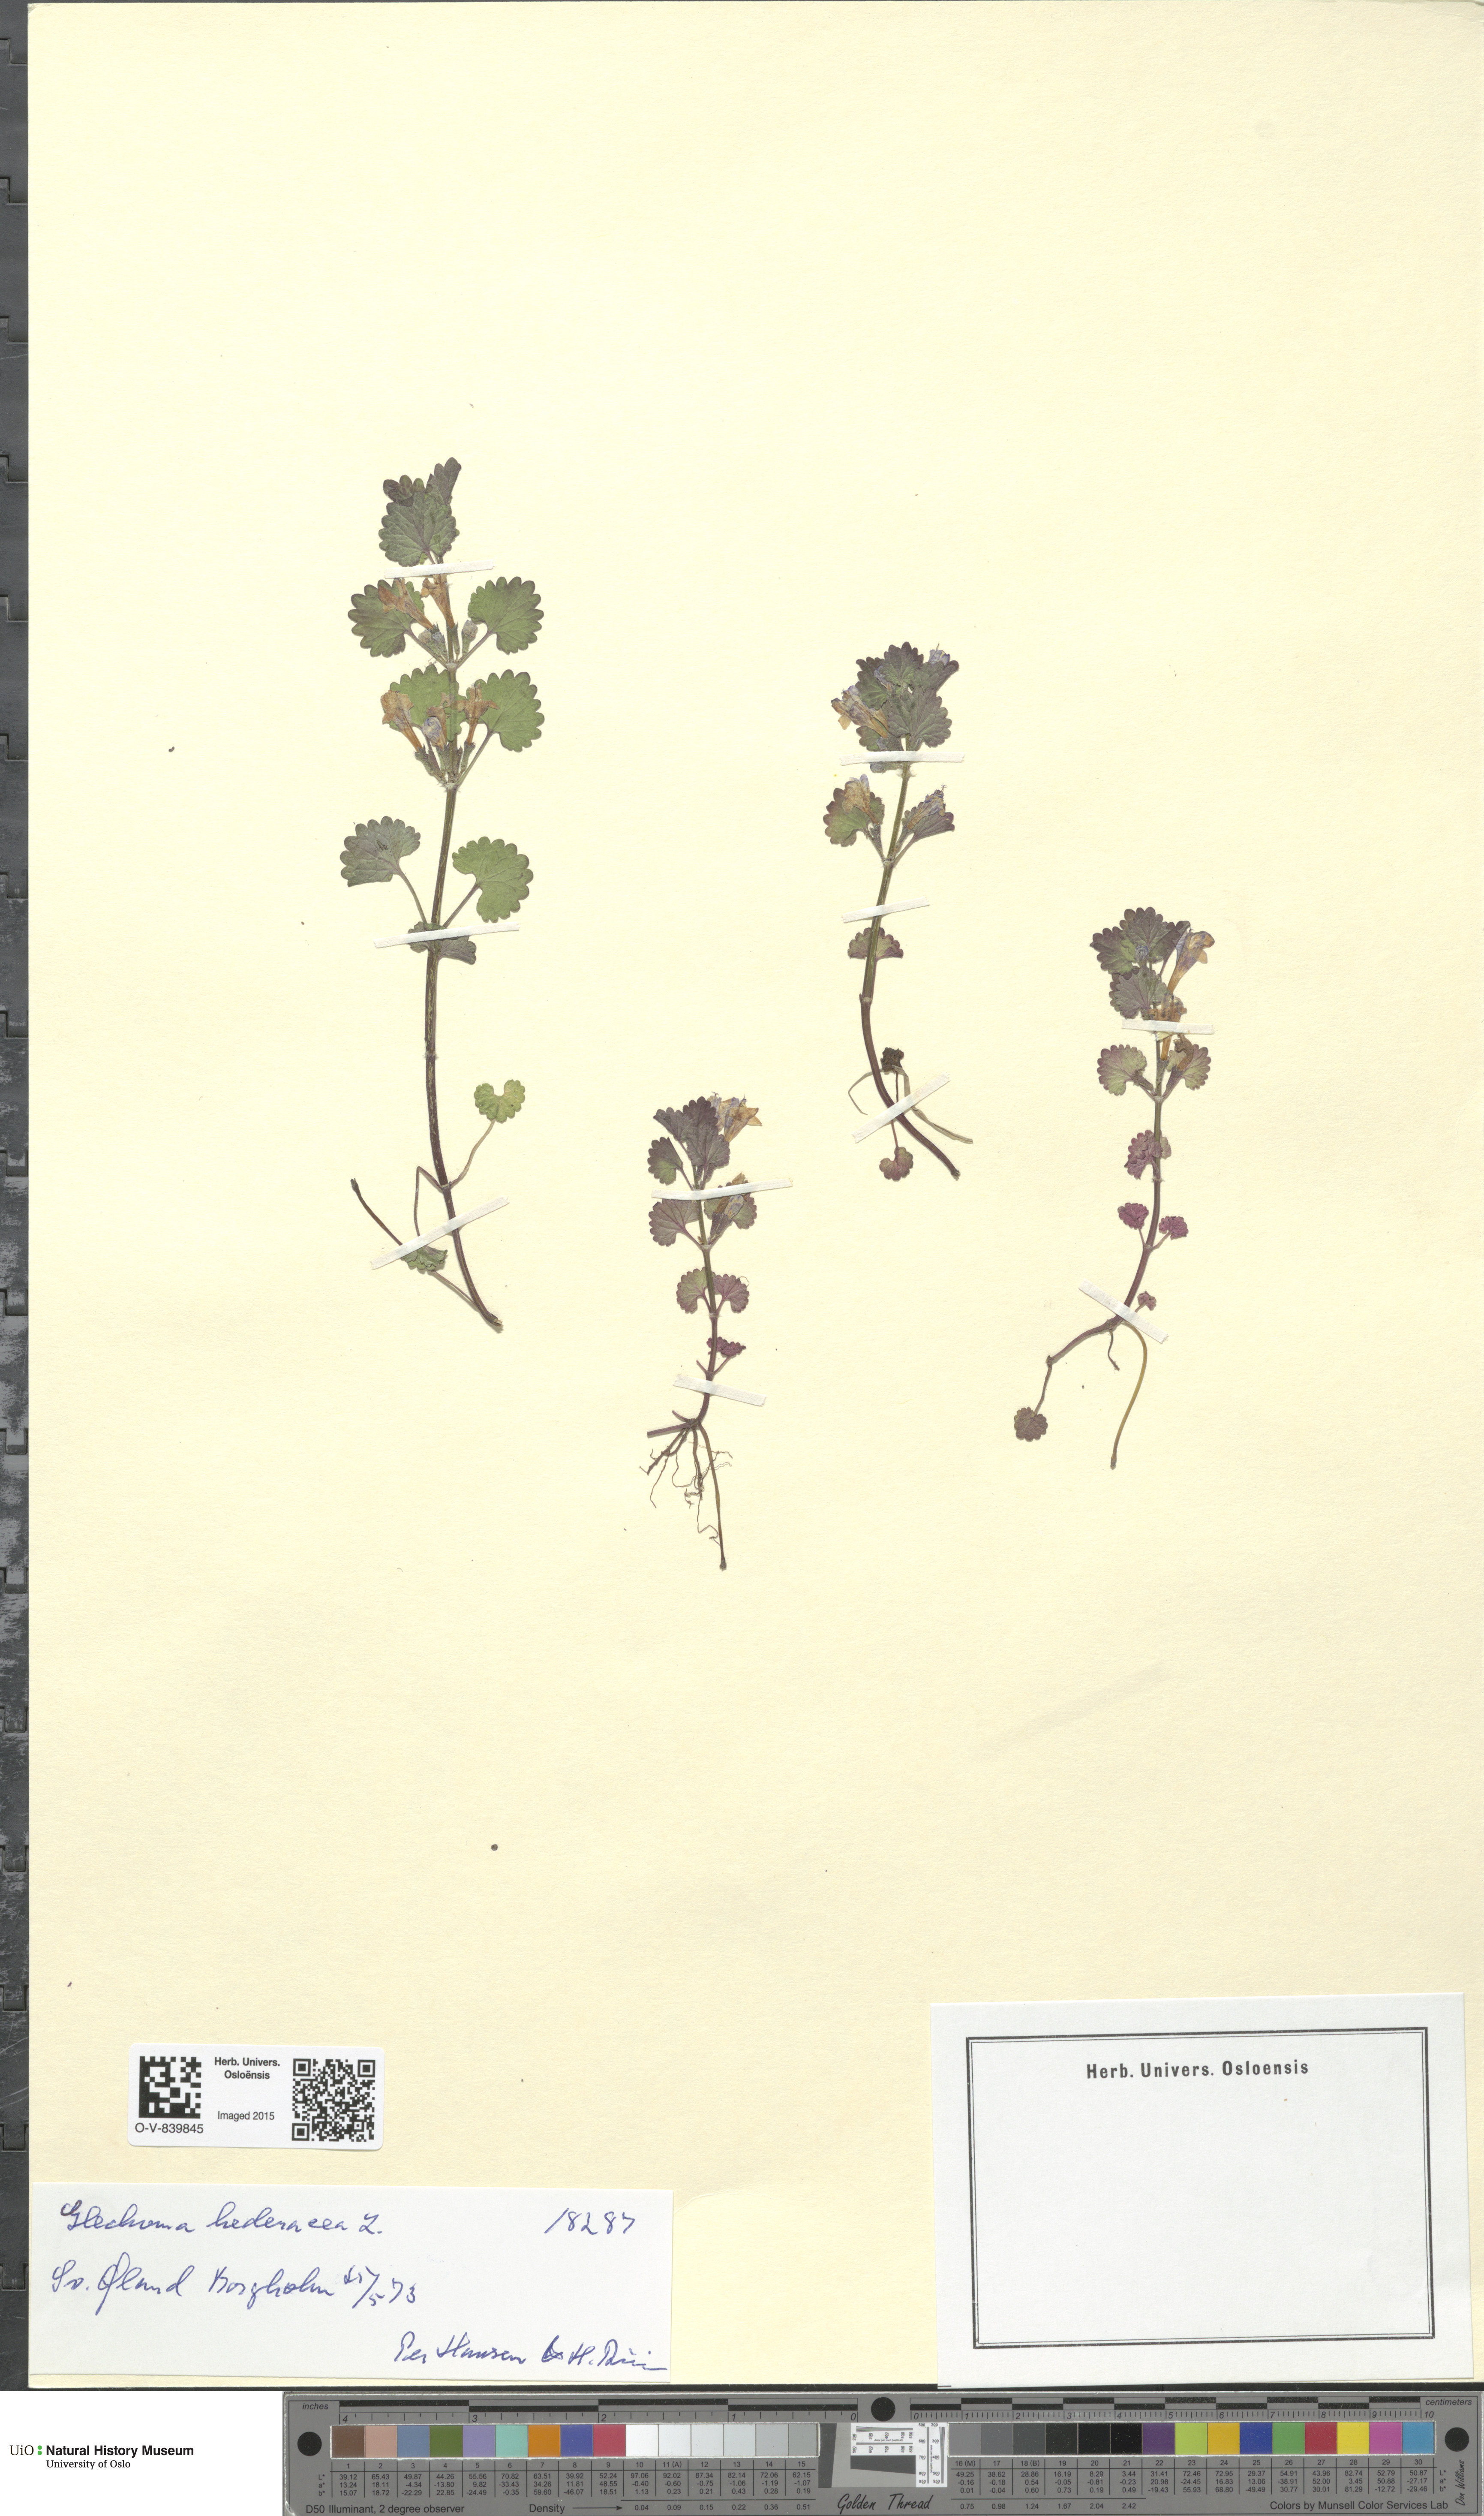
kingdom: Plantae
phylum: Tracheophyta
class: Magnoliopsida
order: Lamiales
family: Lamiaceae
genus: Glechoma
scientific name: Glechoma hederacea
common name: Ground ivy
